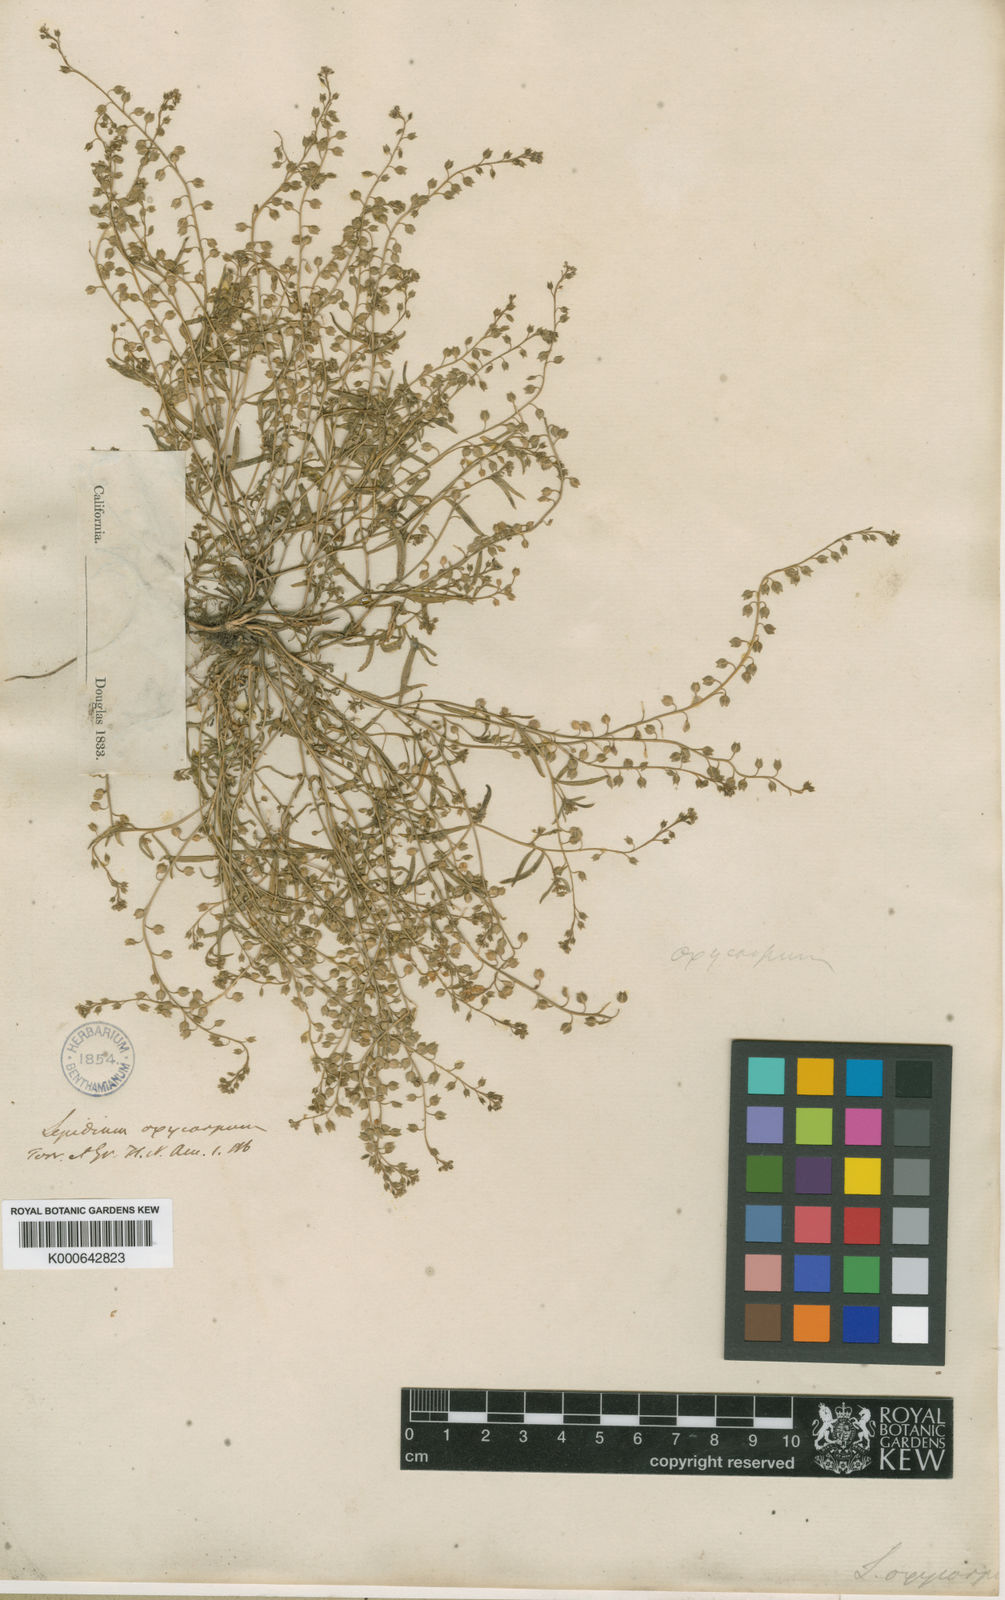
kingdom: Plantae
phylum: Tracheophyta
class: Magnoliopsida
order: Brassicales
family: Brassicaceae
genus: Lepidium
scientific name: Lepidium
